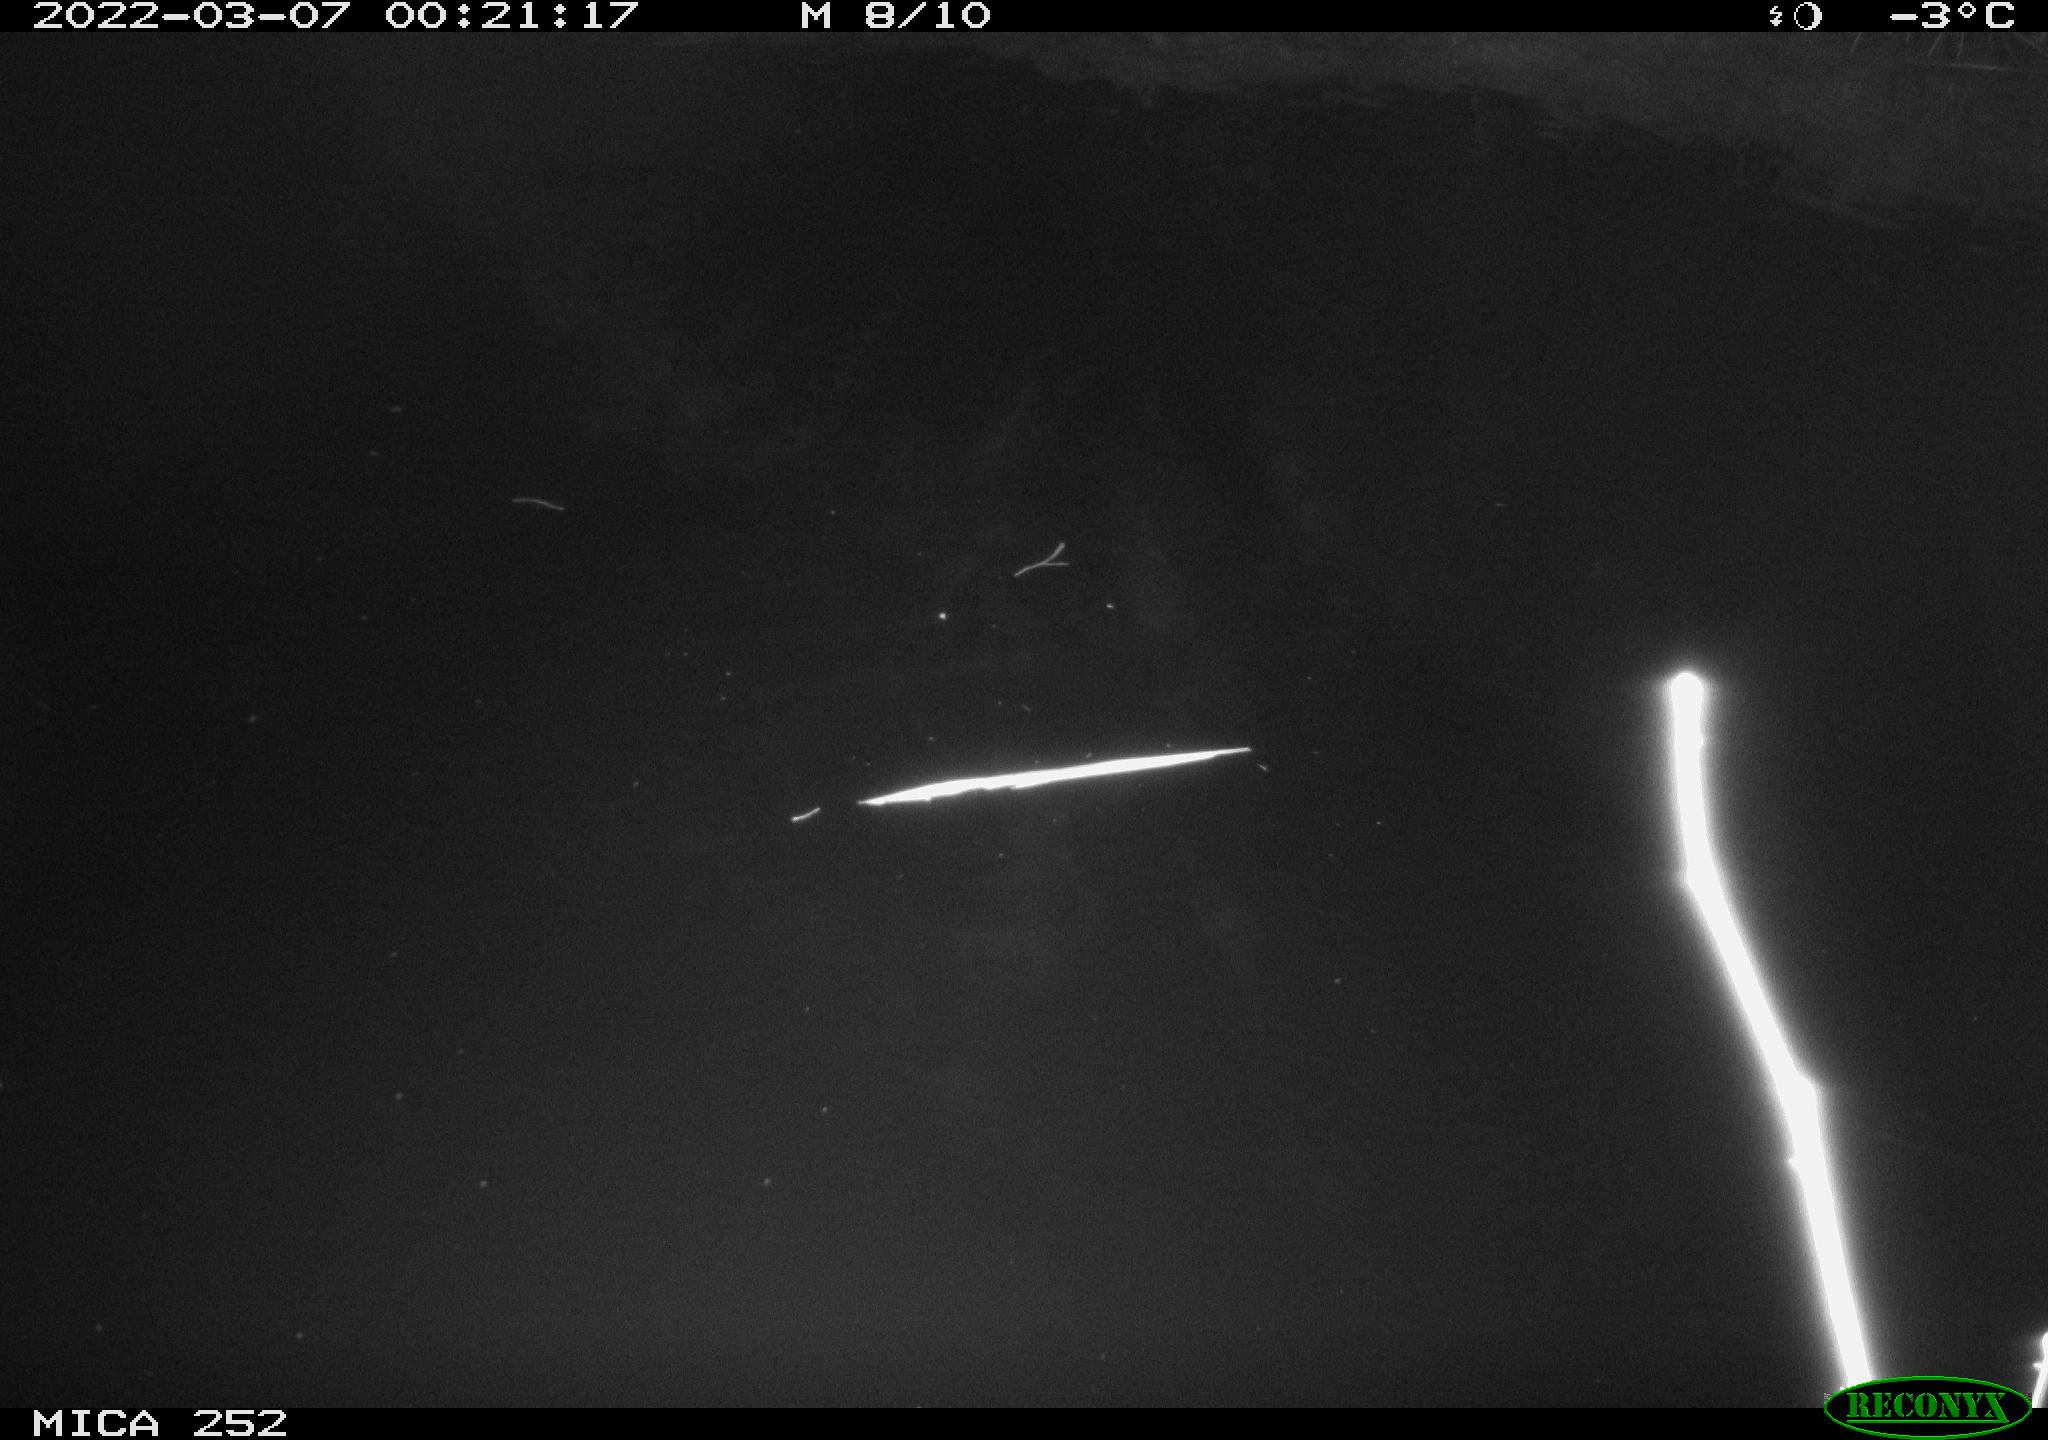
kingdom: Animalia
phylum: Chordata
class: Mammalia
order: Rodentia
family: Castoridae
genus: Castor
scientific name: Castor fiber
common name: Eurasian beaver
